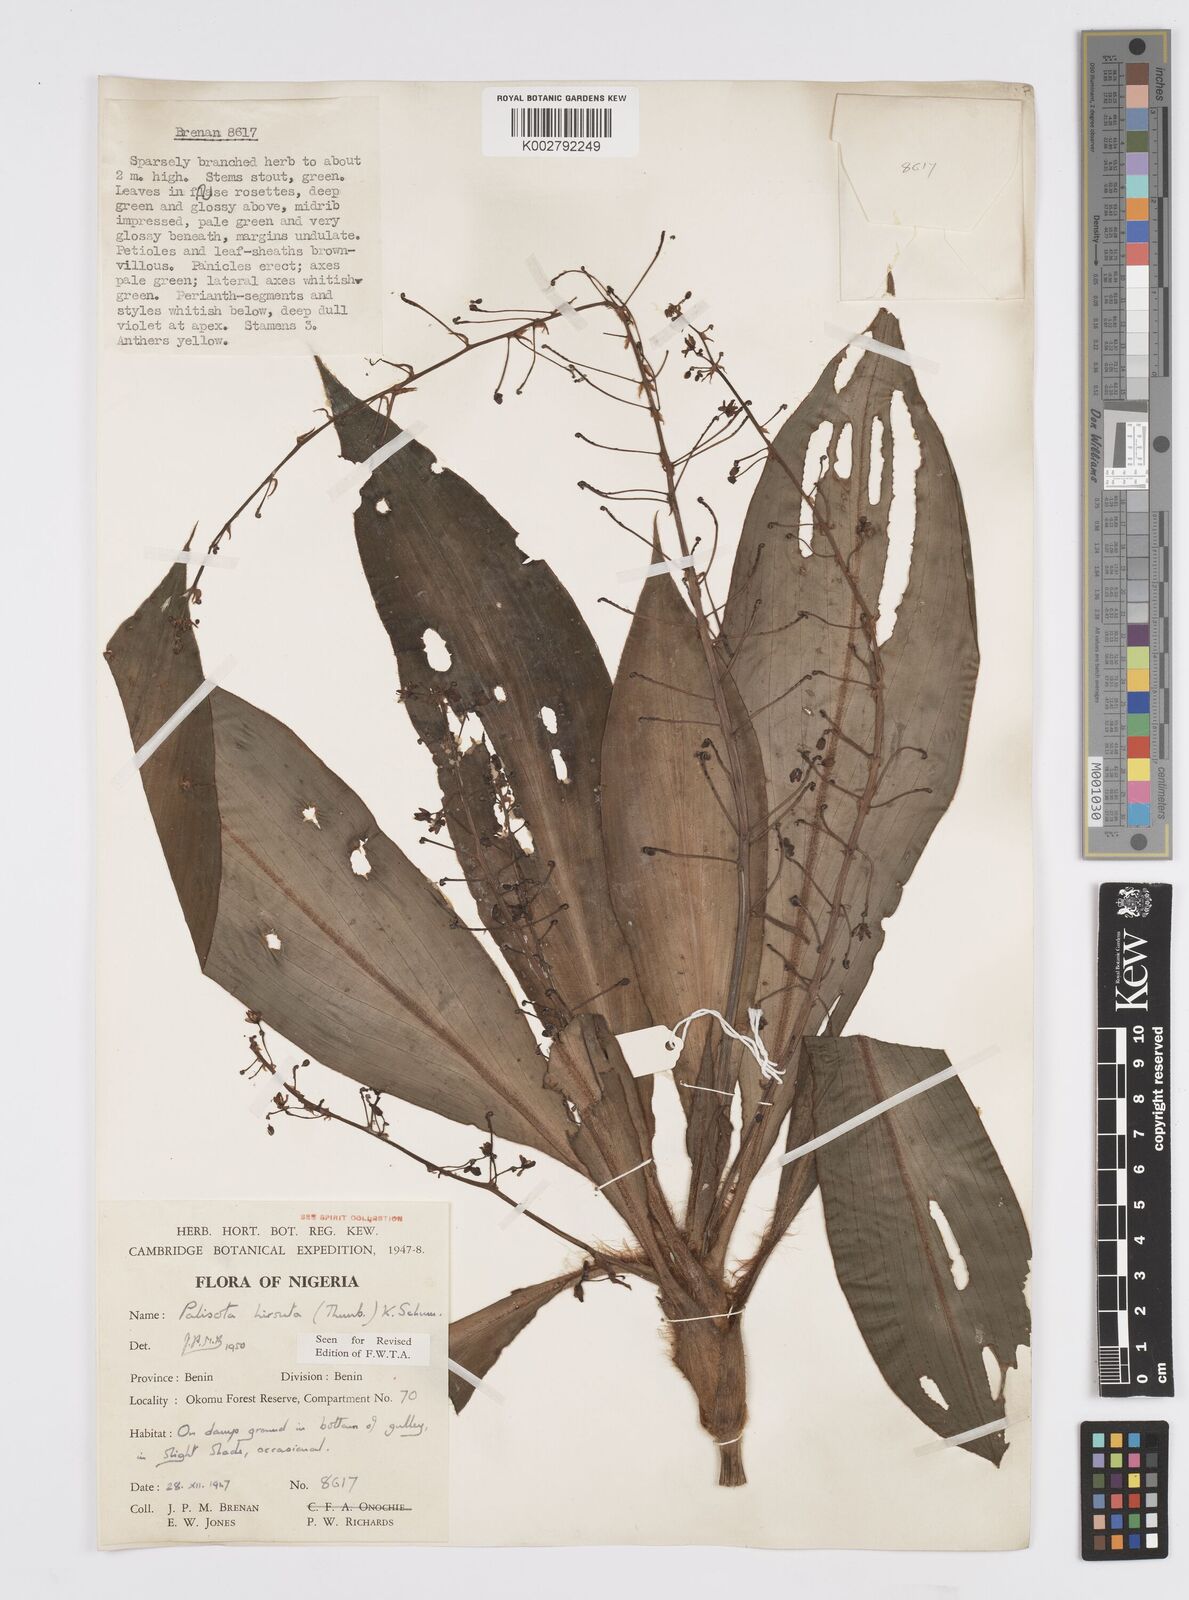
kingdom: Plantae
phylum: Tracheophyta
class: Liliopsida
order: Commelinales
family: Commelinaceae
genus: Palisota
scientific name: Palisota hirsuta
